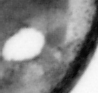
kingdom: Animalia
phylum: Chordata
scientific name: Chordata
